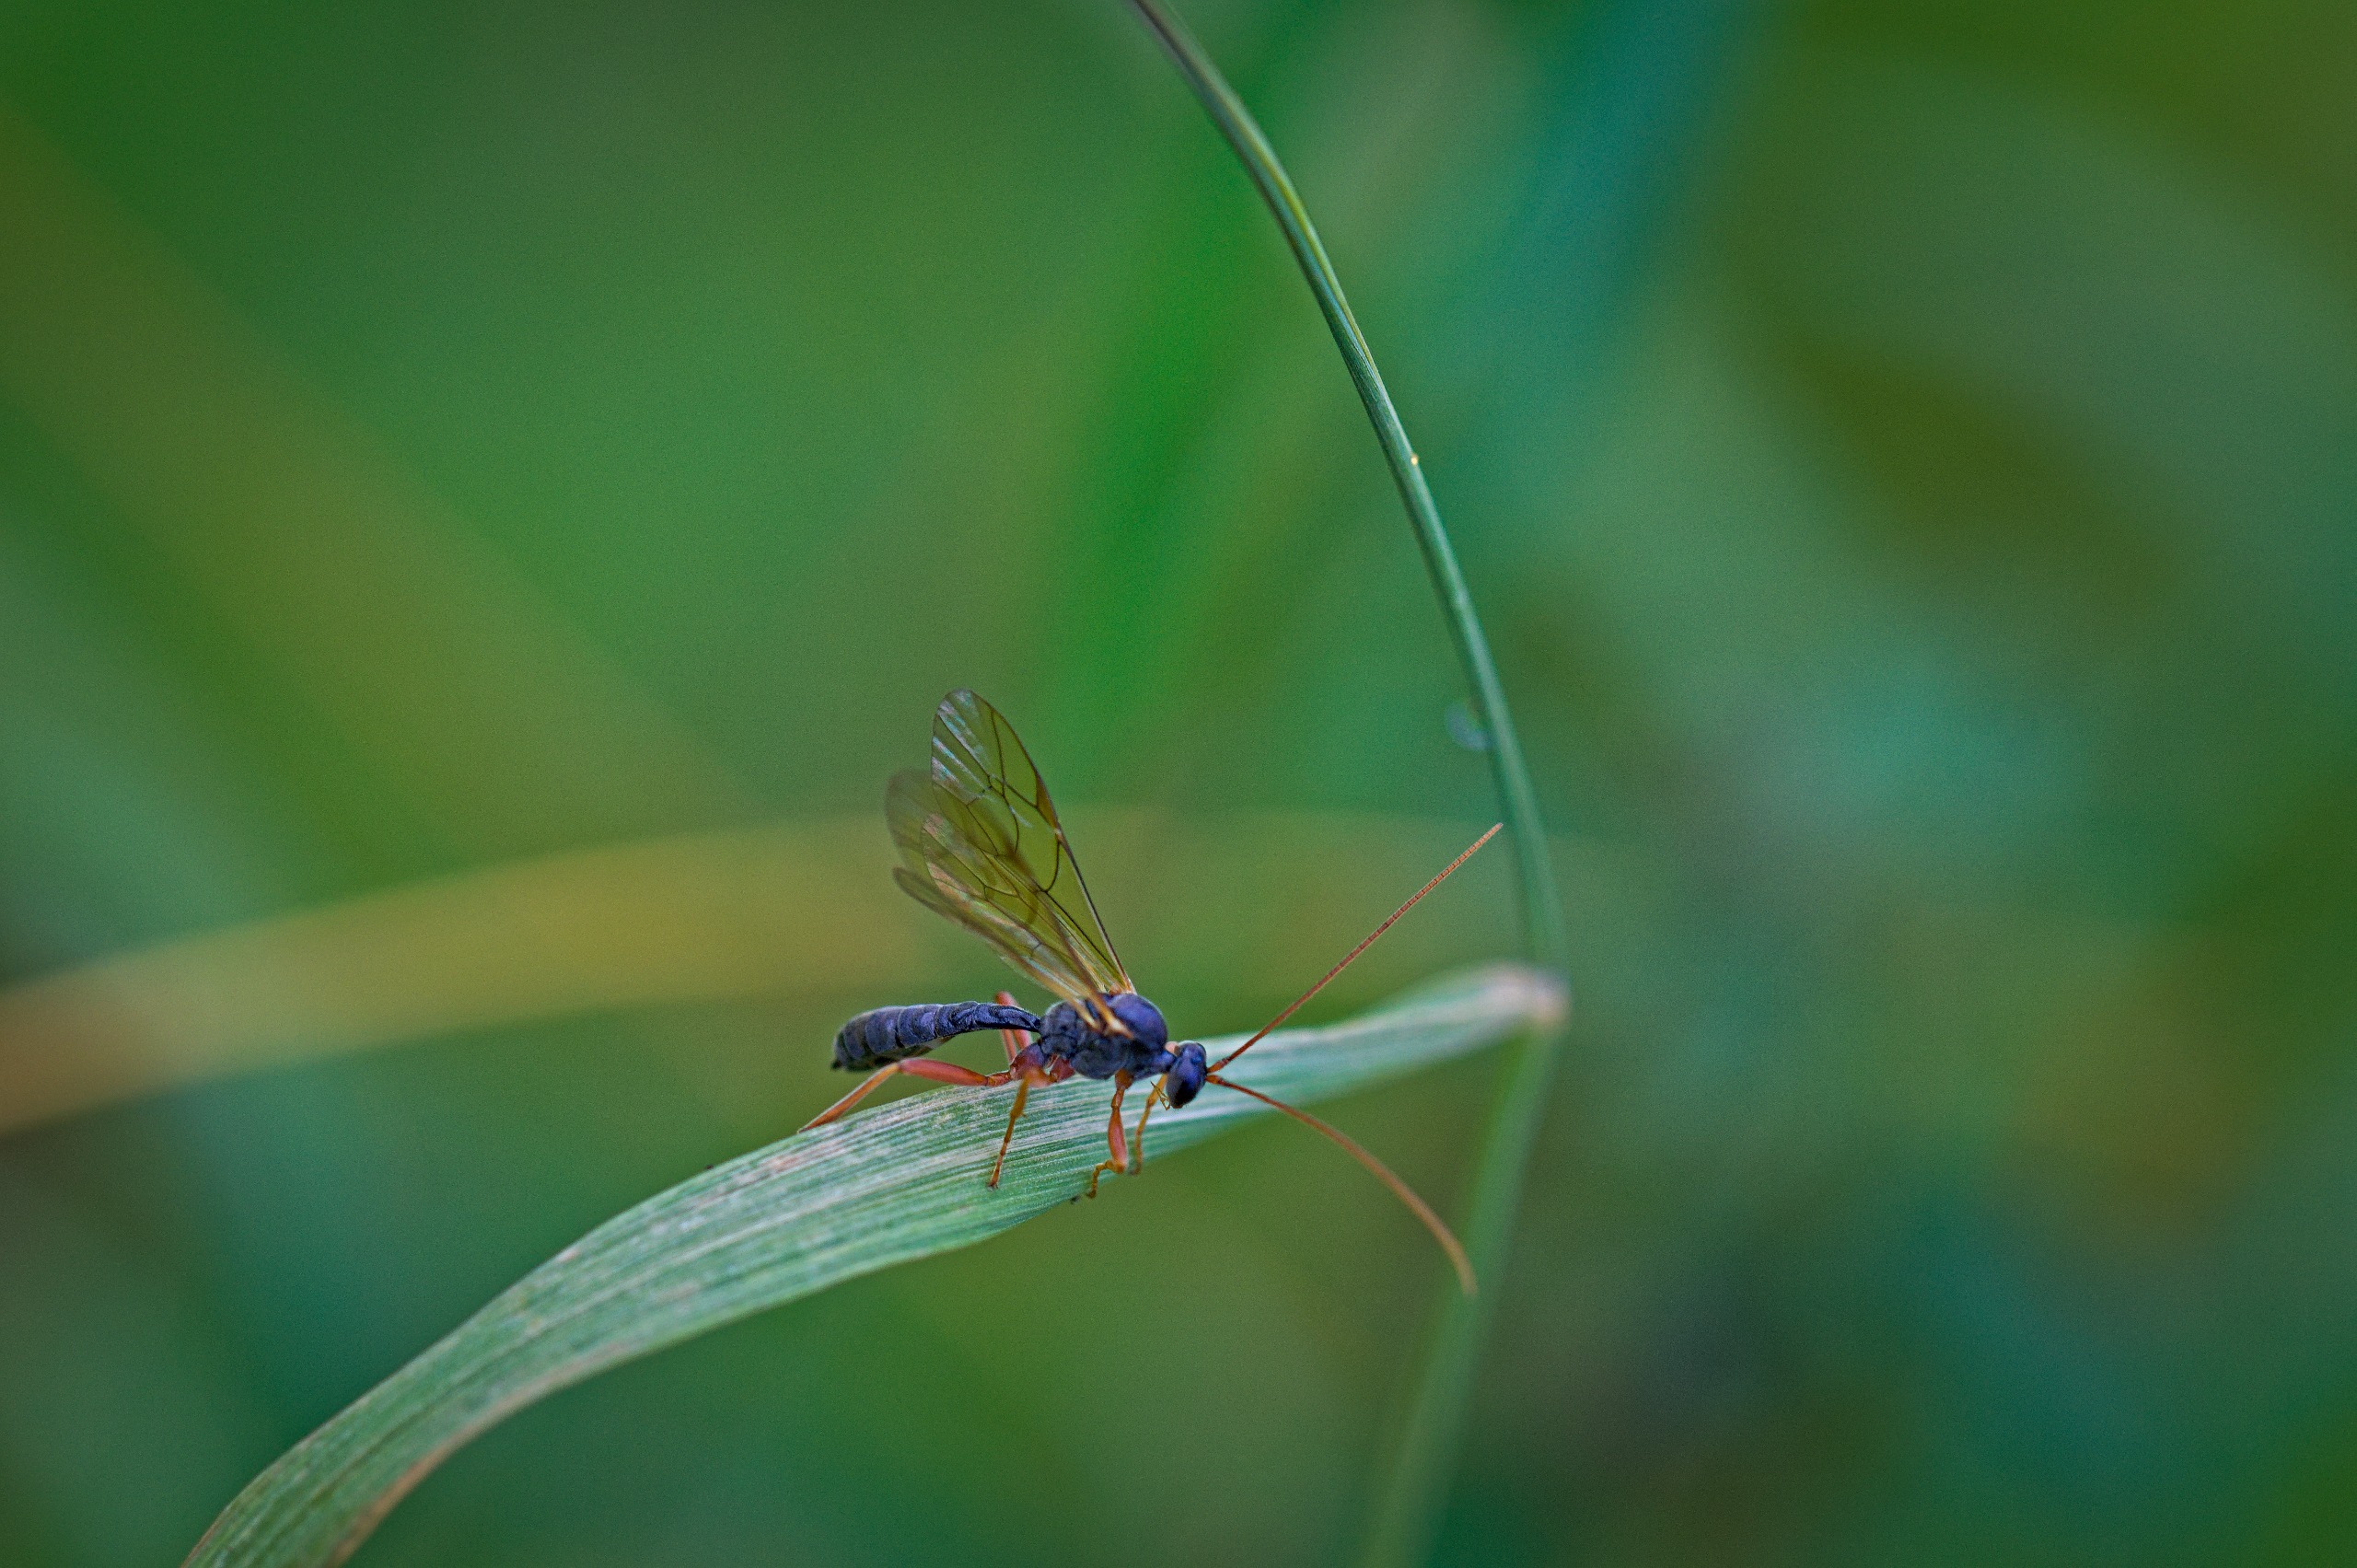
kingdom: Animalia
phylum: Arthropoda
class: Insecta
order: Hymenoptera
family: Ichneumonidae
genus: Dyspetes
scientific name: Dyspetes luteomarginatus
